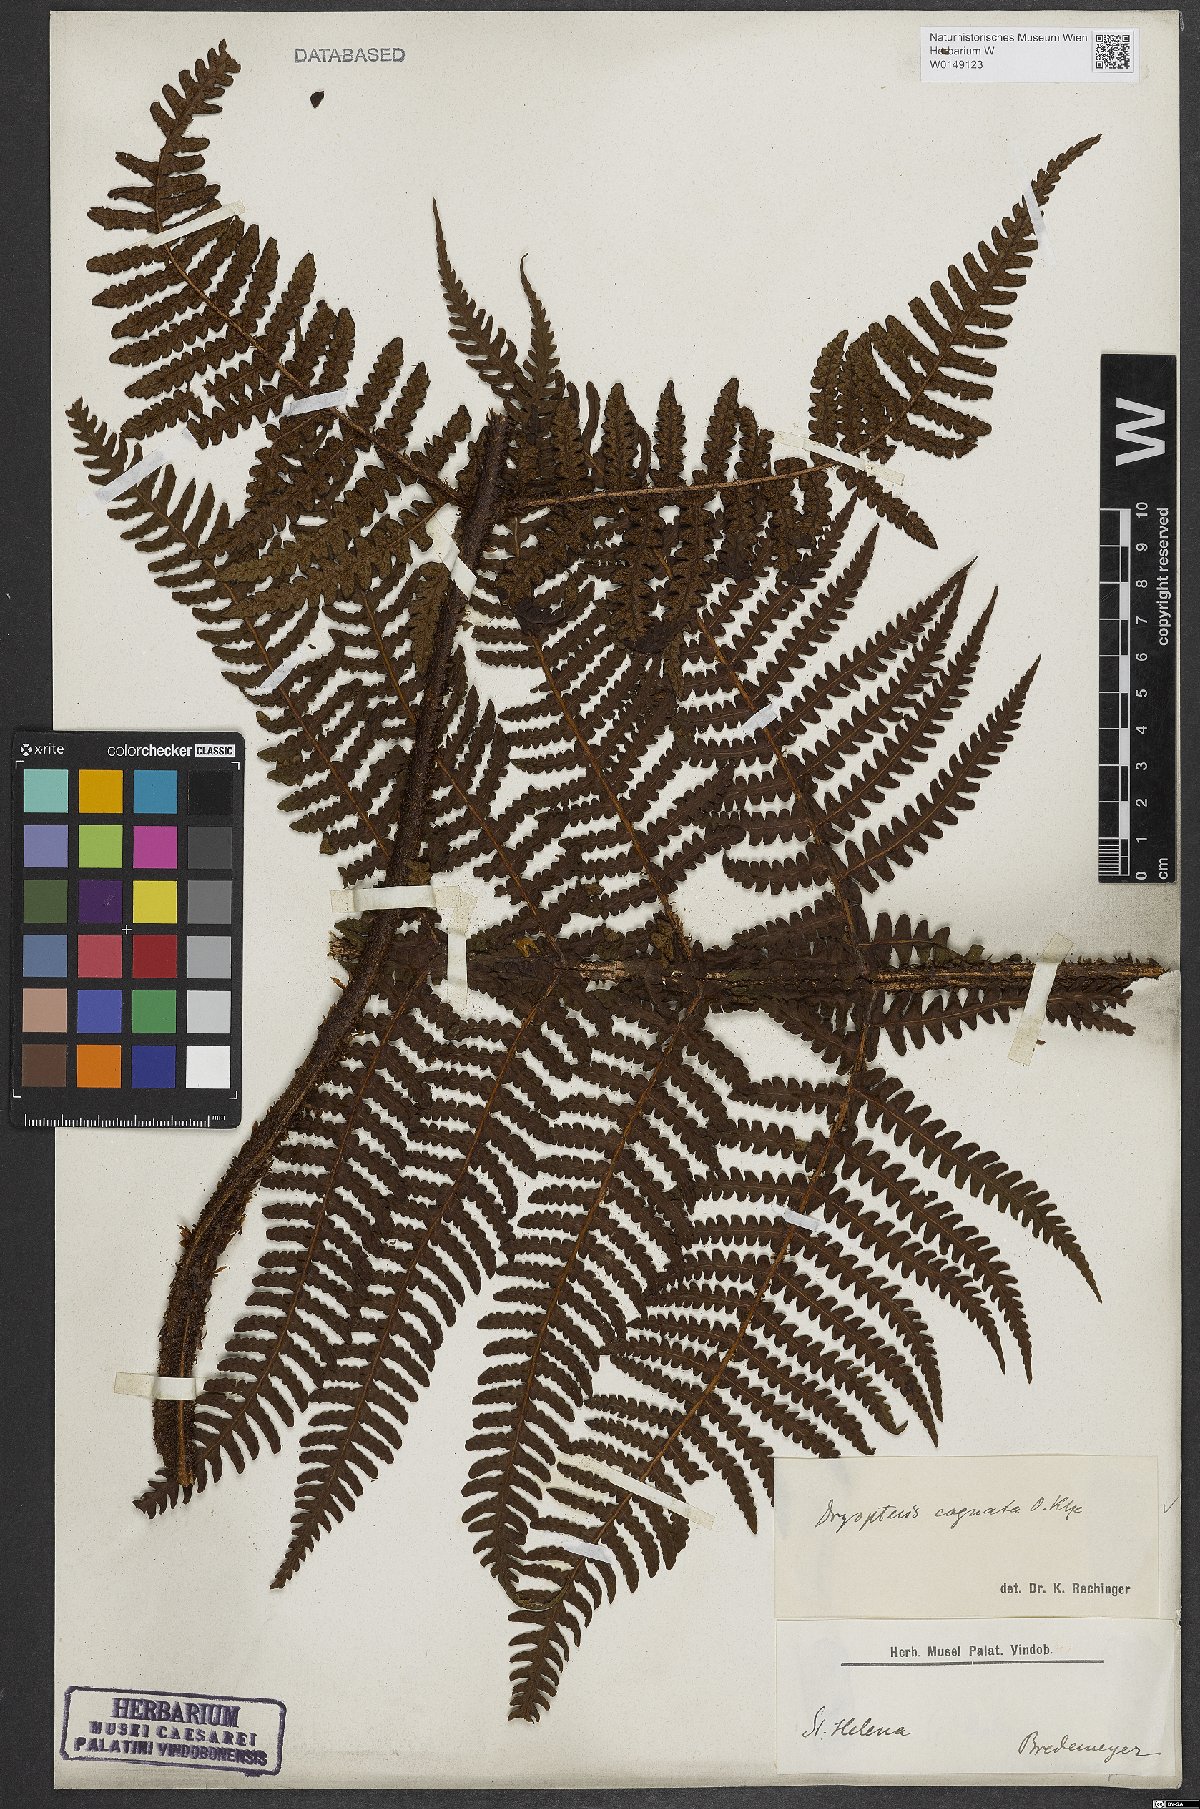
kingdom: Plantae
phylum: Tracheophyta
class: Polypodiopsida
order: Polypodiales
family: Dryopteridaceae
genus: Dryopteris
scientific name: Dryopteris cognata
